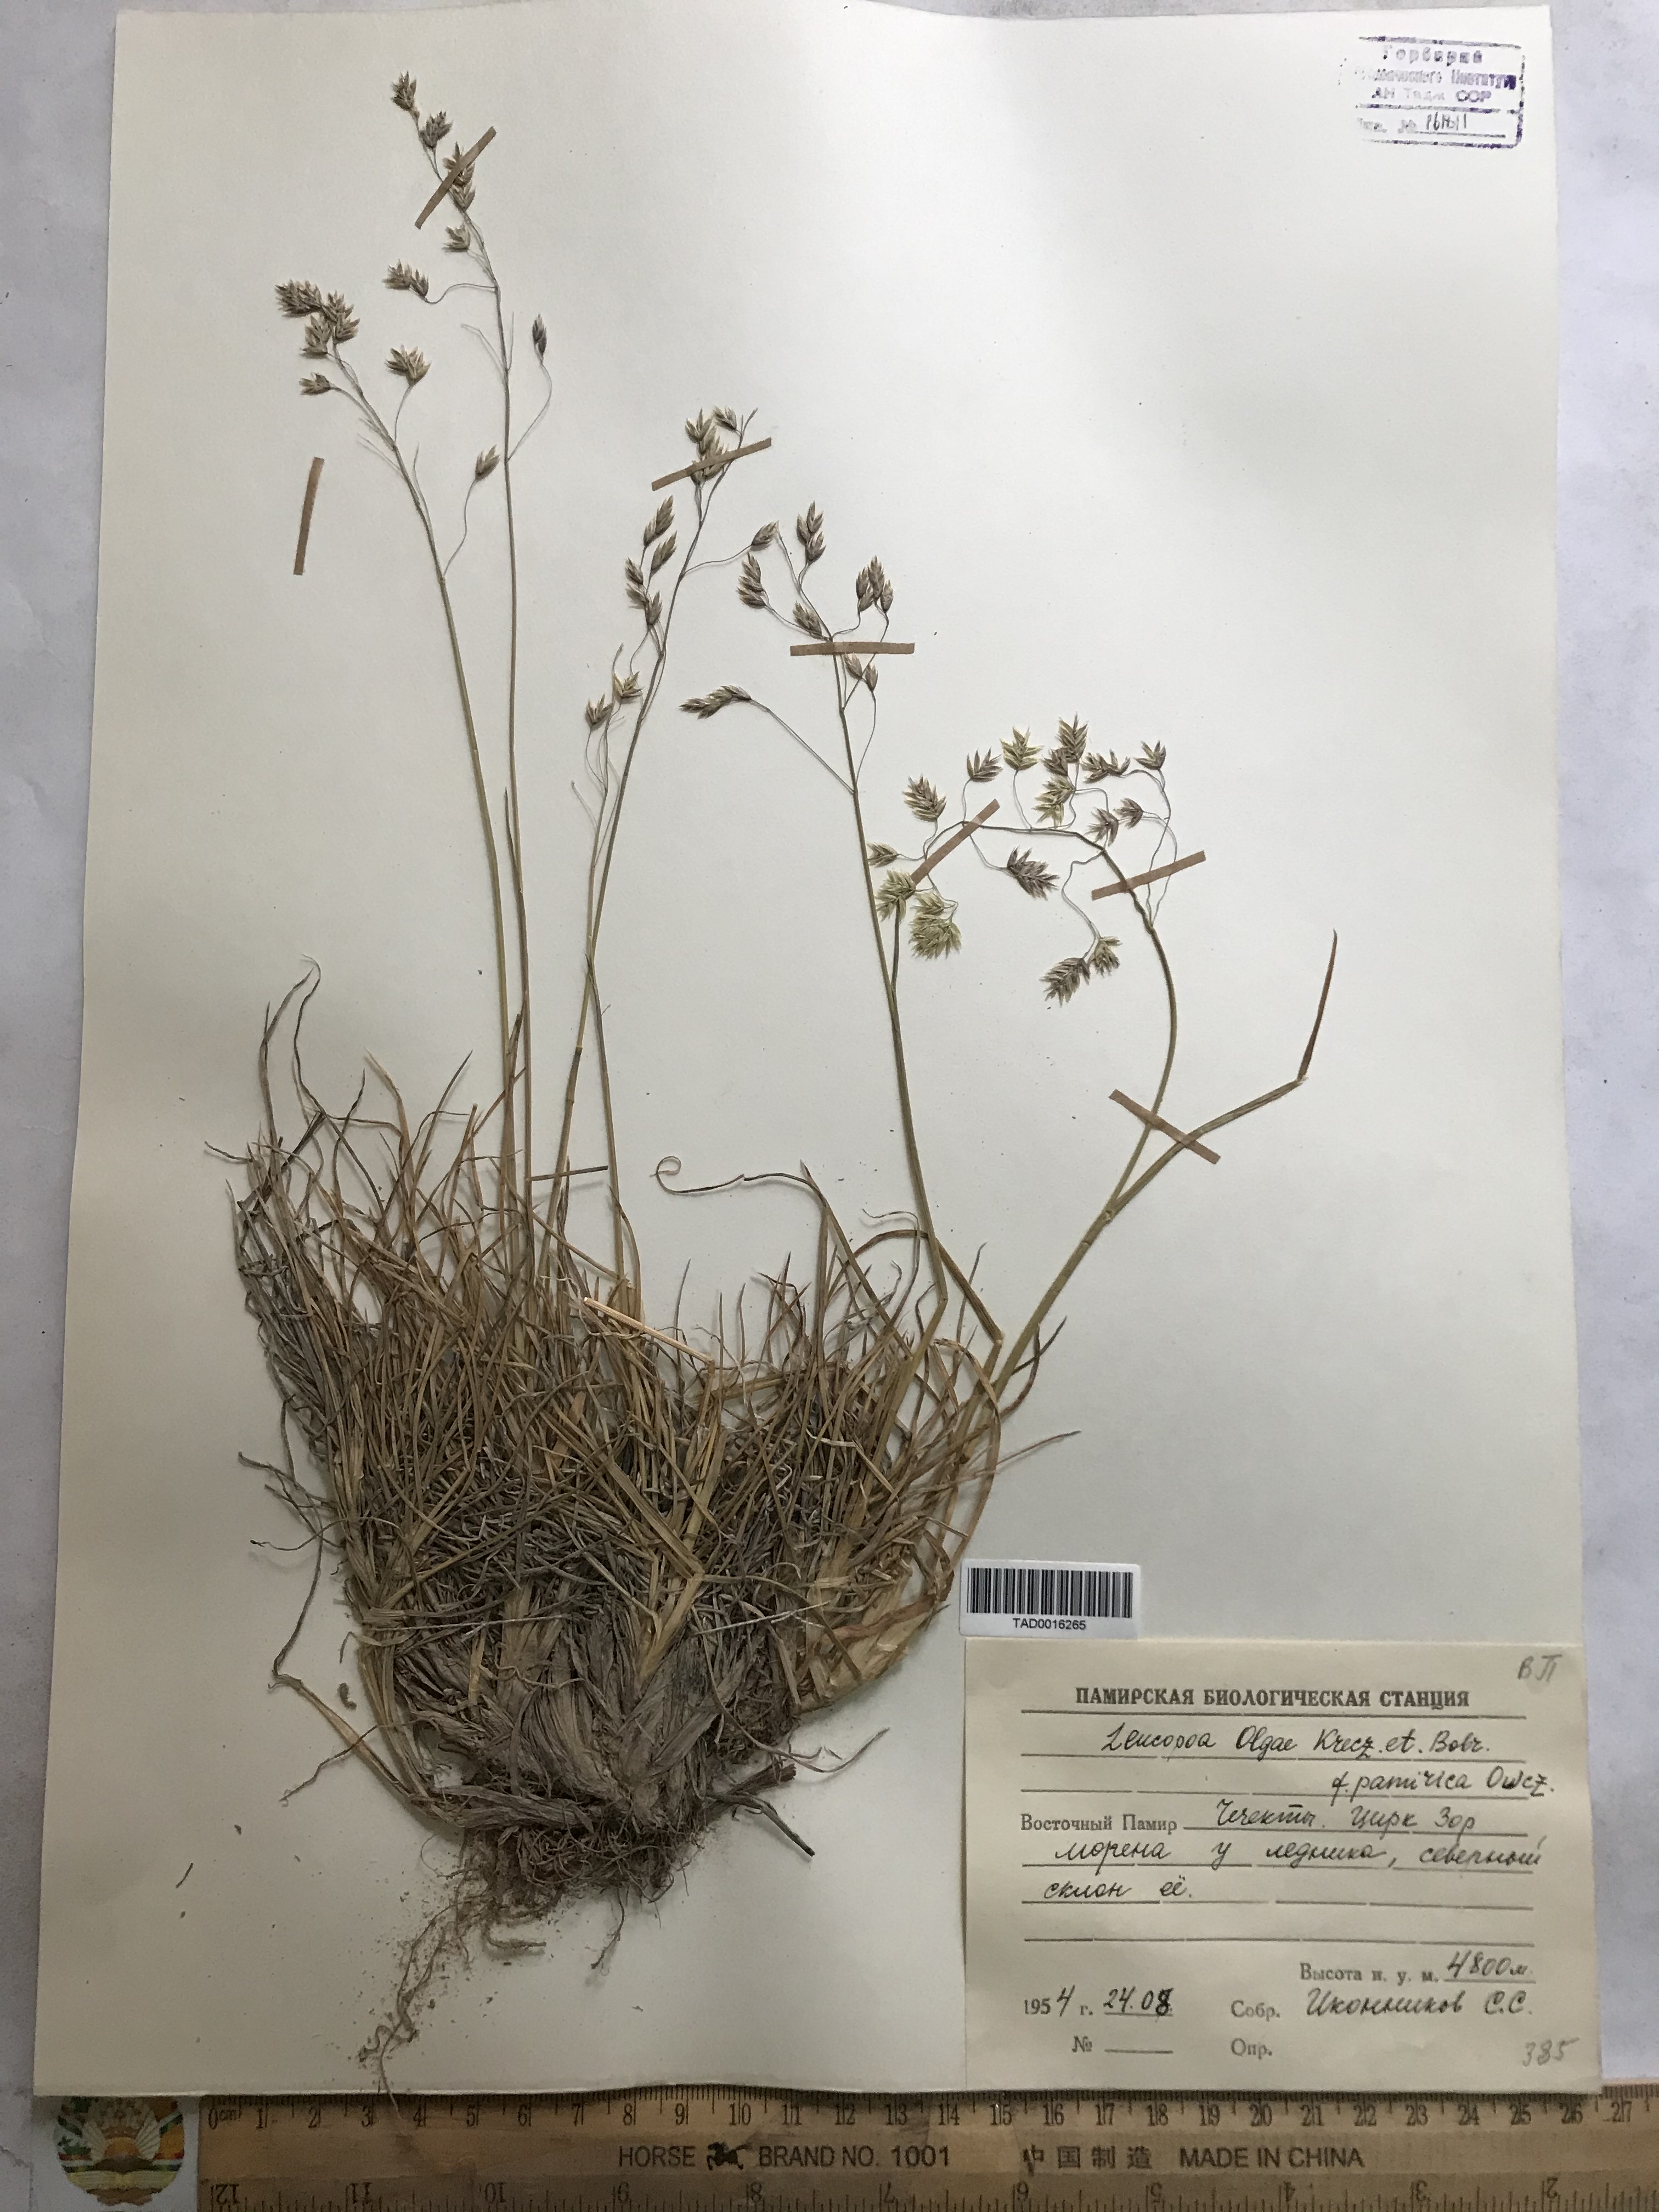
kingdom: Plantae
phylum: Tracheophyta
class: Liliopsida
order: Poales
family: Poaceae
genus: Festuca
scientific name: Festuca
